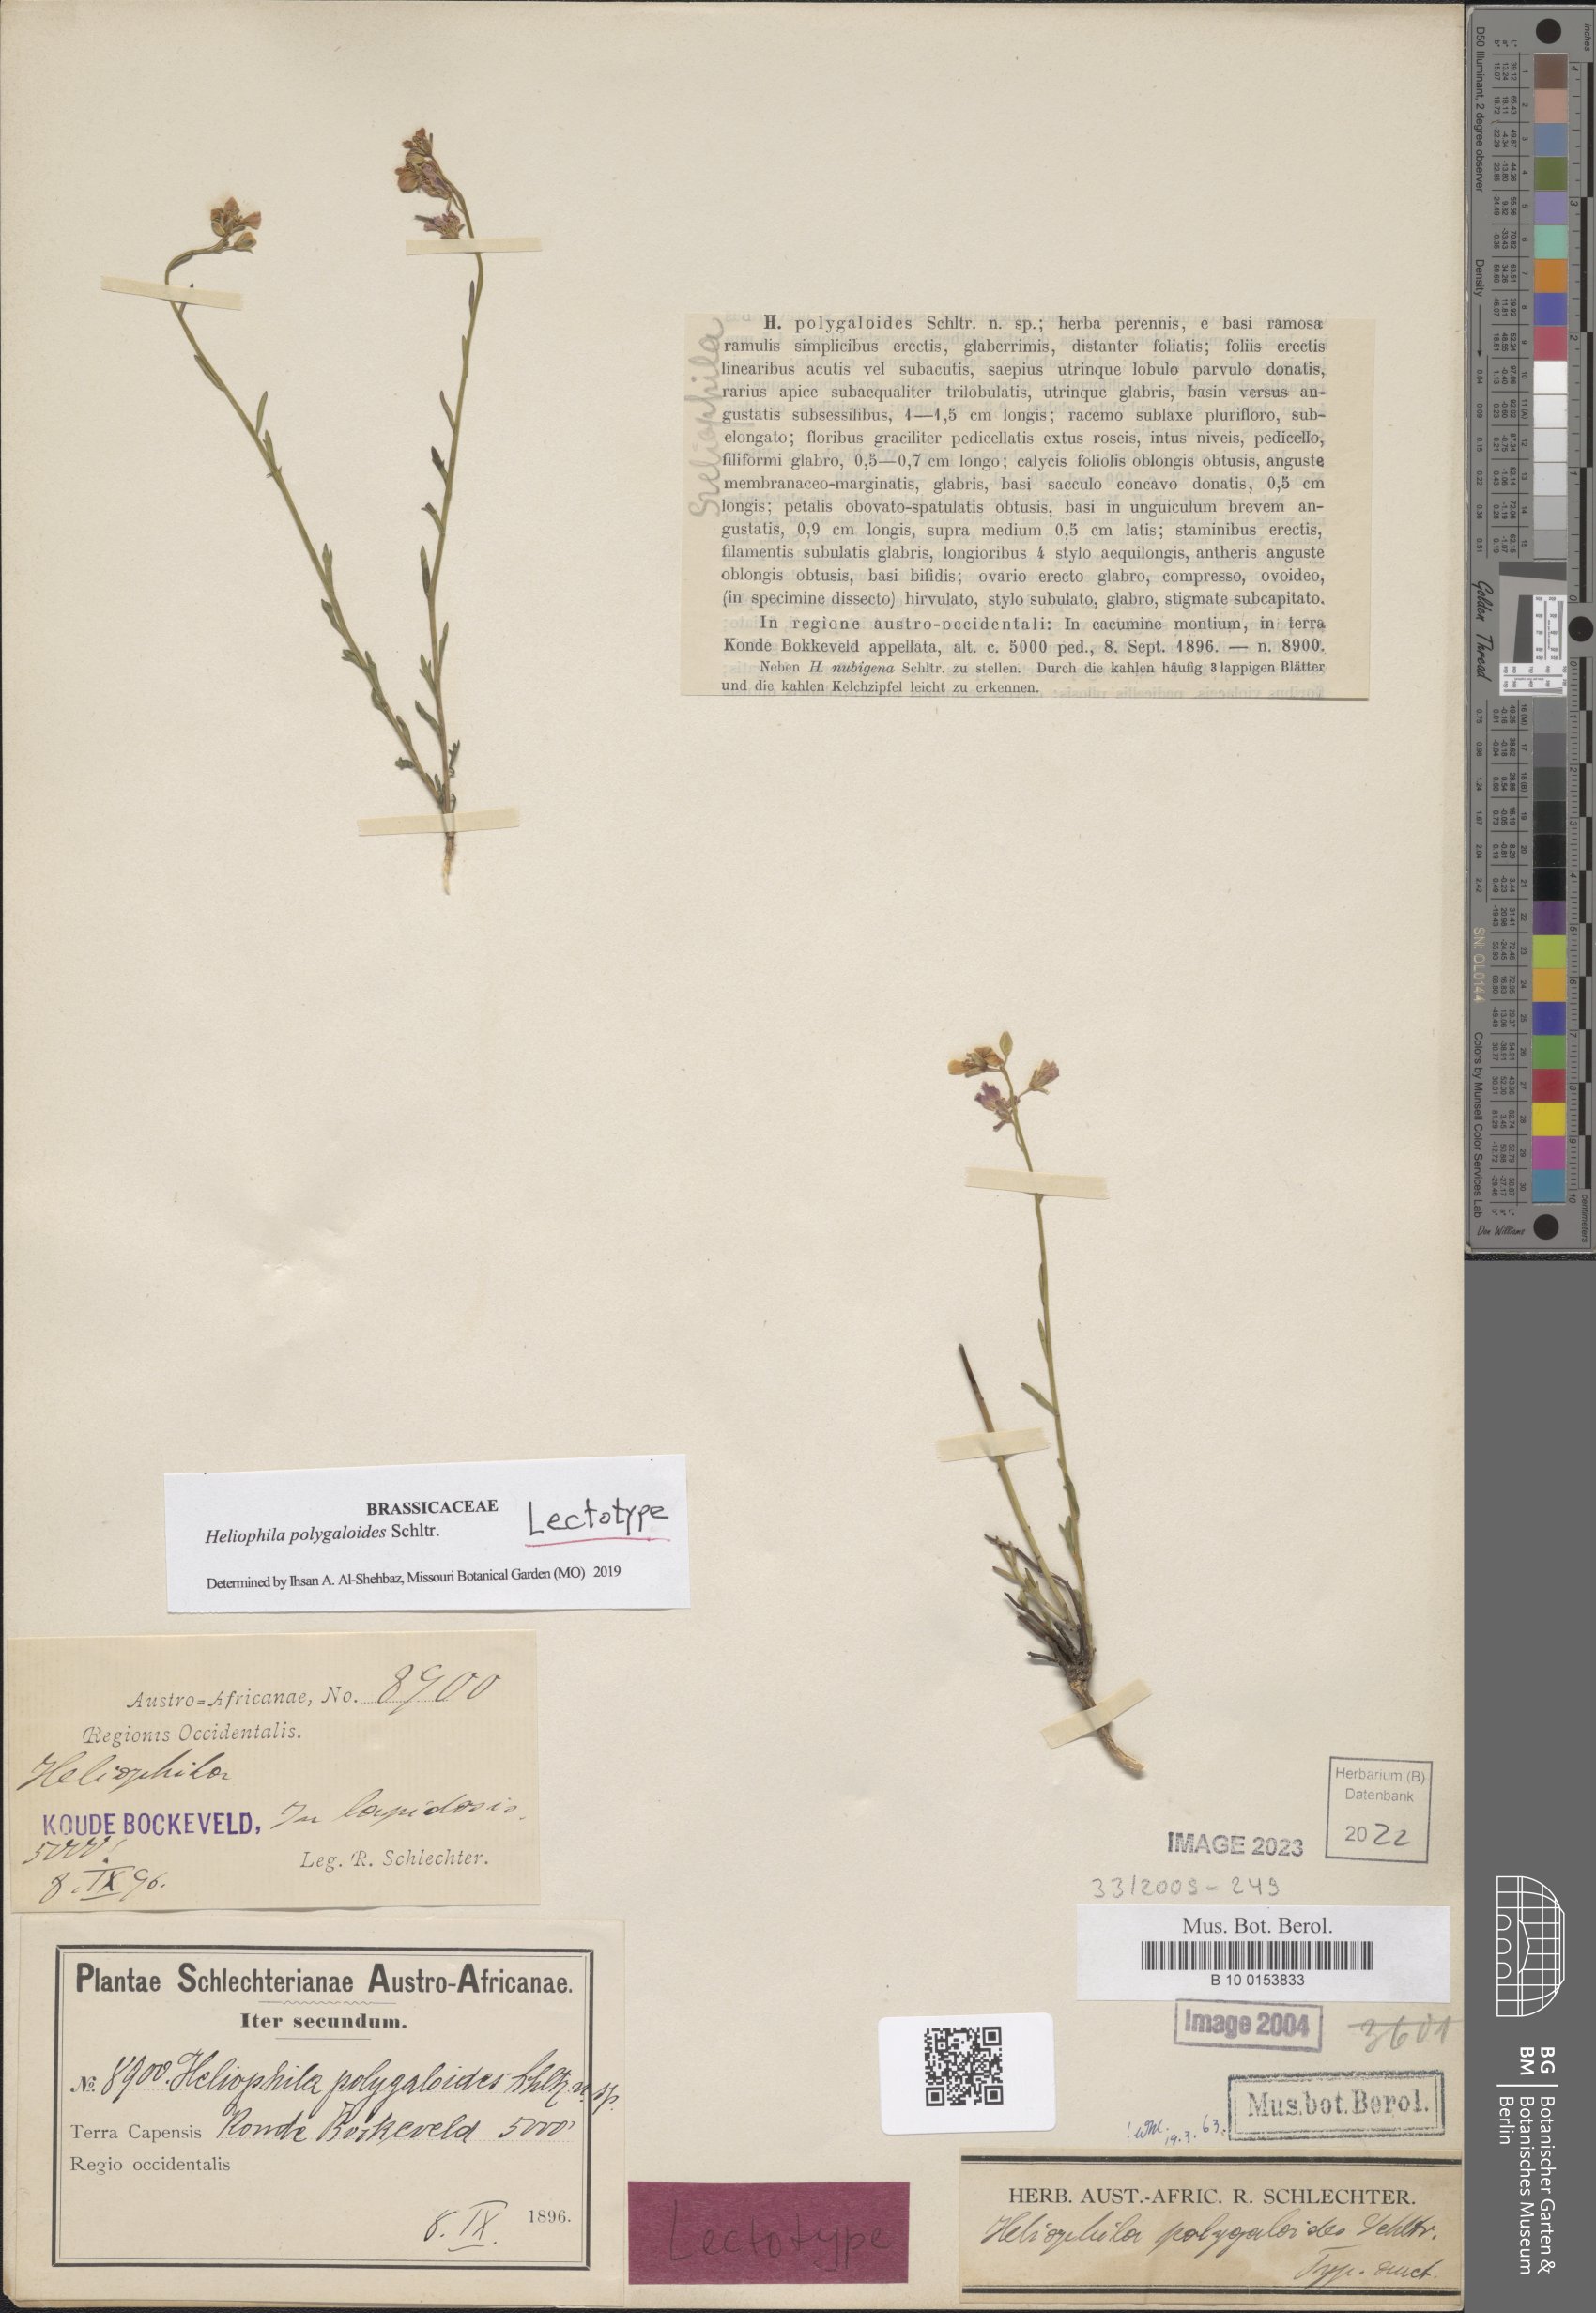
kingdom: Plantae
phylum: Tracheophyta
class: Magnoliopsida
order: Brassicales
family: Brassicaceae
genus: Heliophila
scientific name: Heliophila polygaloides
